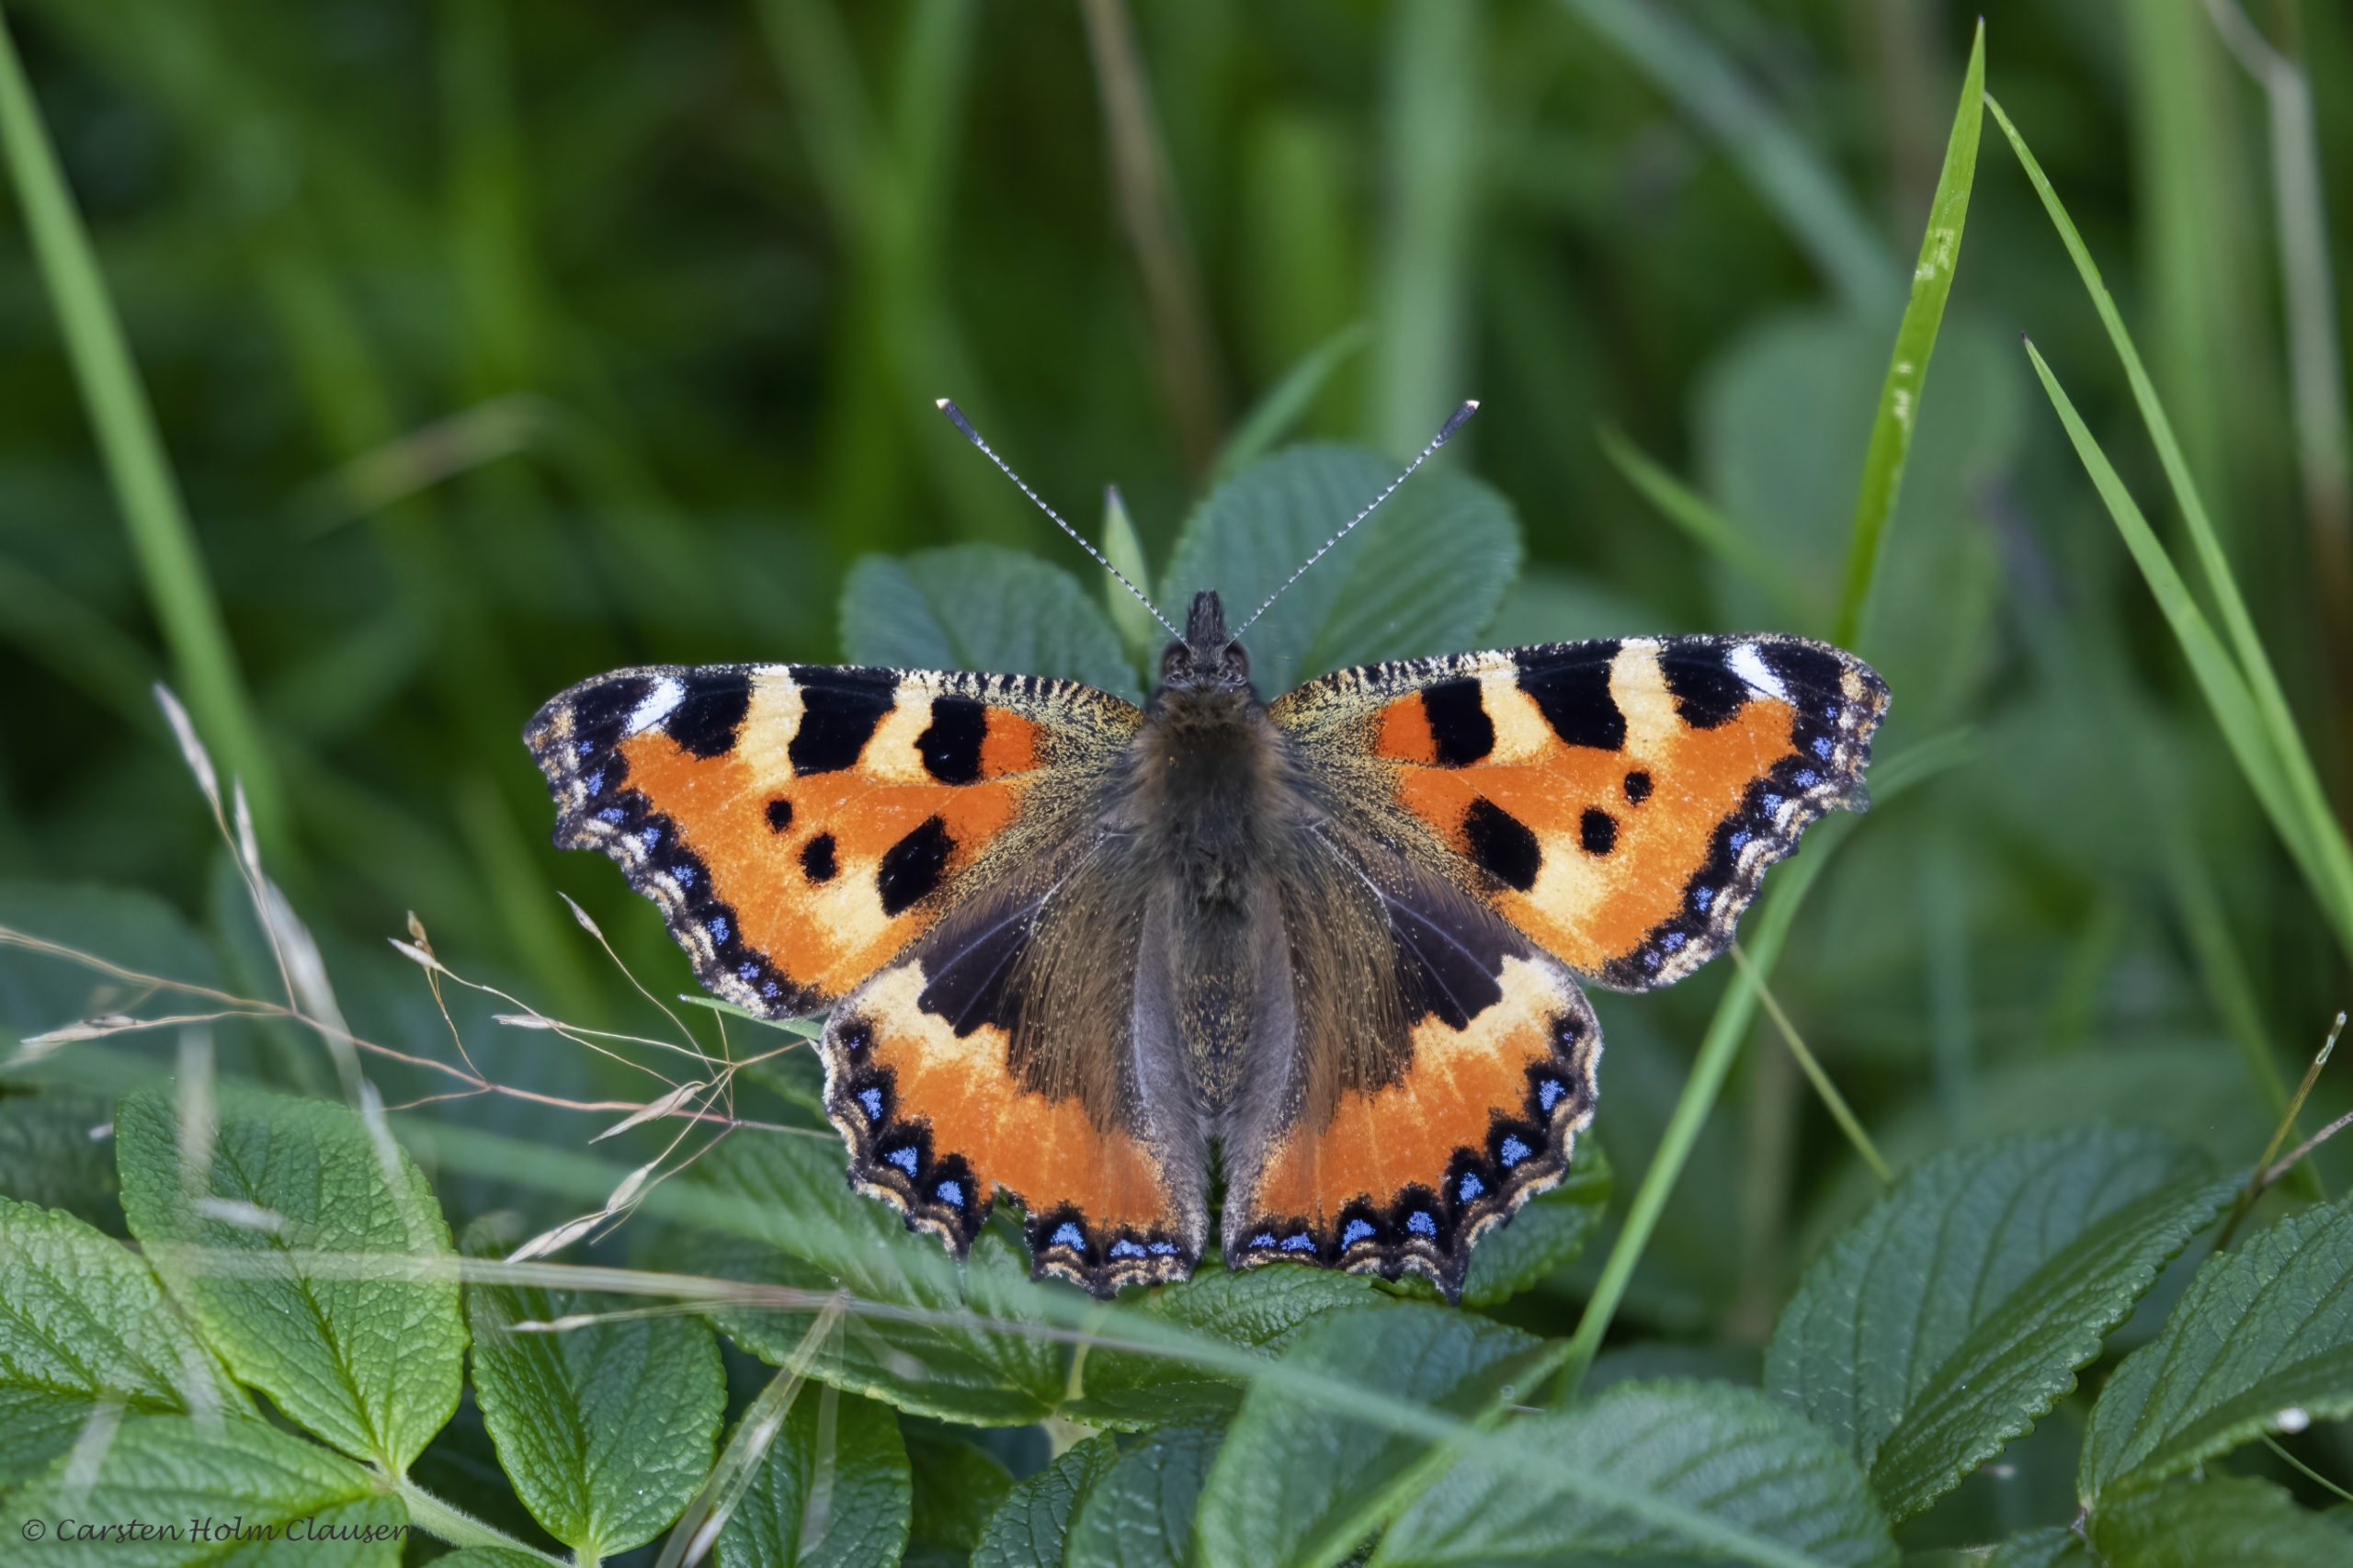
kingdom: Animalia
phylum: Arthropoda
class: Insecta
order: Lepidoptera
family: Nymphalidae
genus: Aglais
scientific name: Aglais urticae
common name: Nældens takvinge
